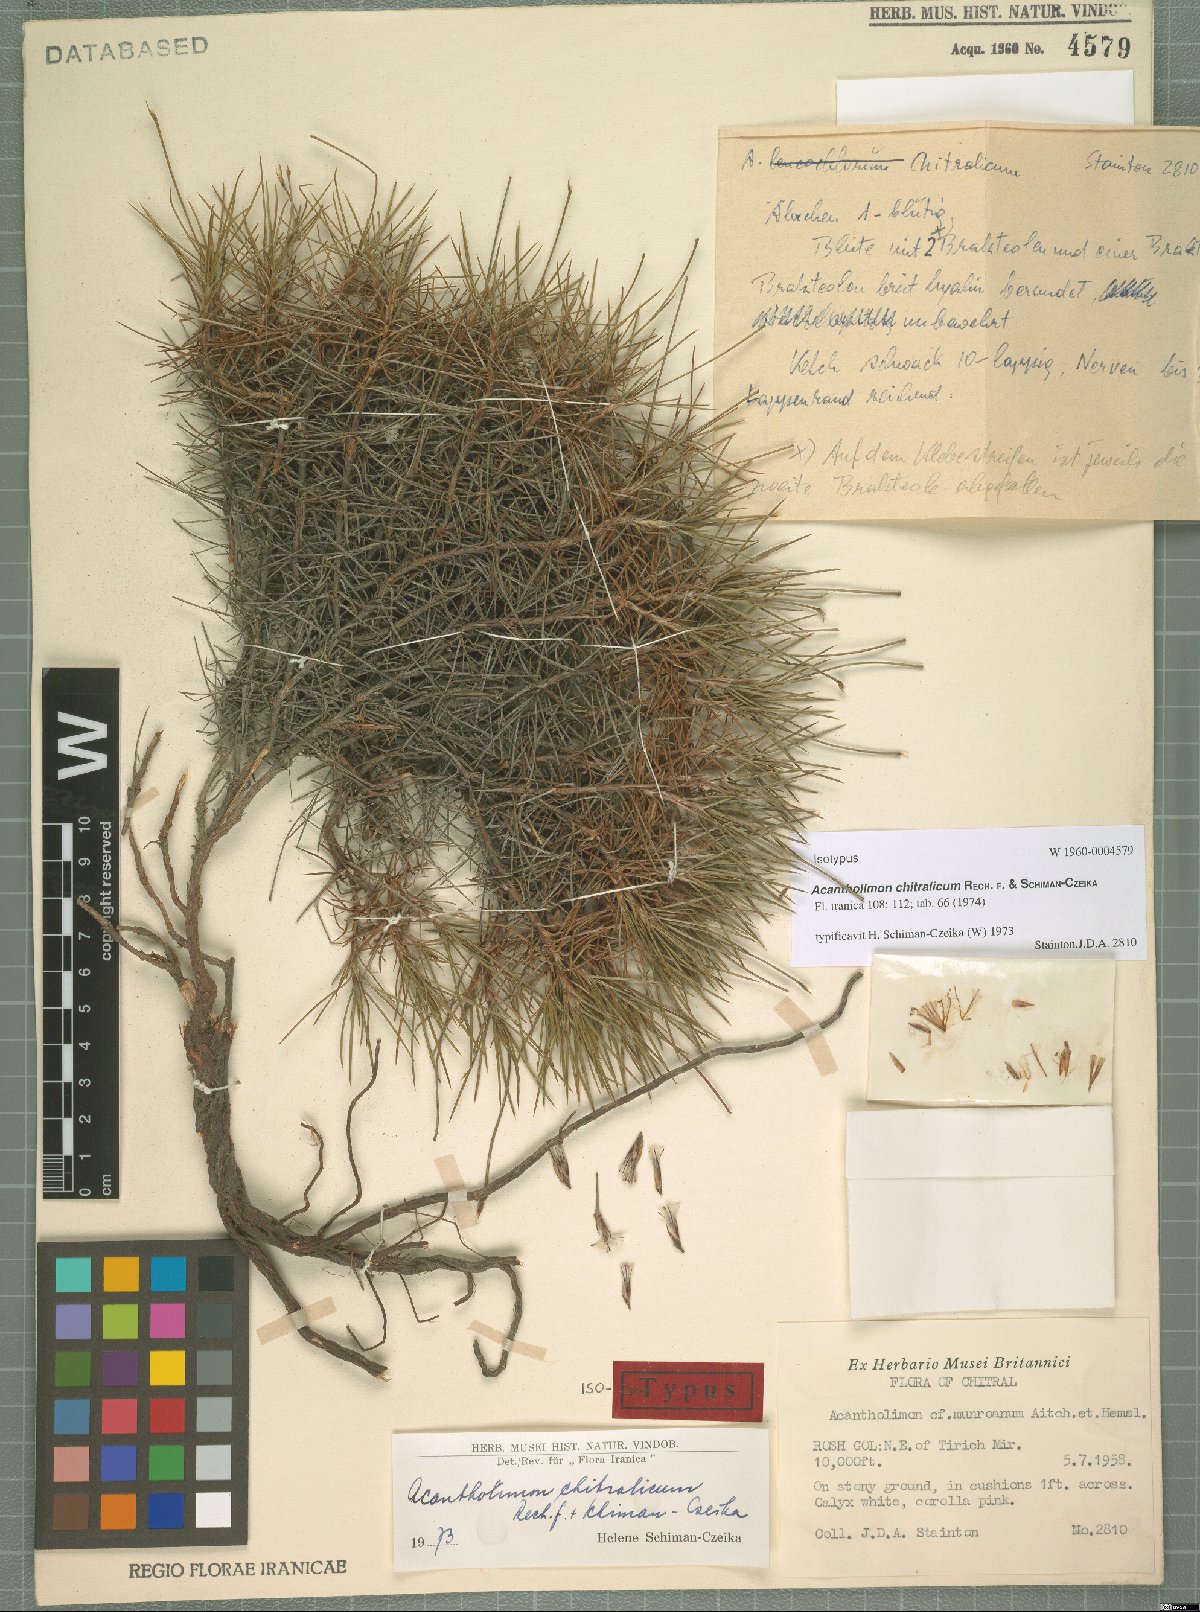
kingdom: Plantae
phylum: Tracheophyta
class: Magnoliopsida
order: Caryophyllales
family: Plumbaginaceae
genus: Acantholimon
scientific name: Acantholimon chitralicum
